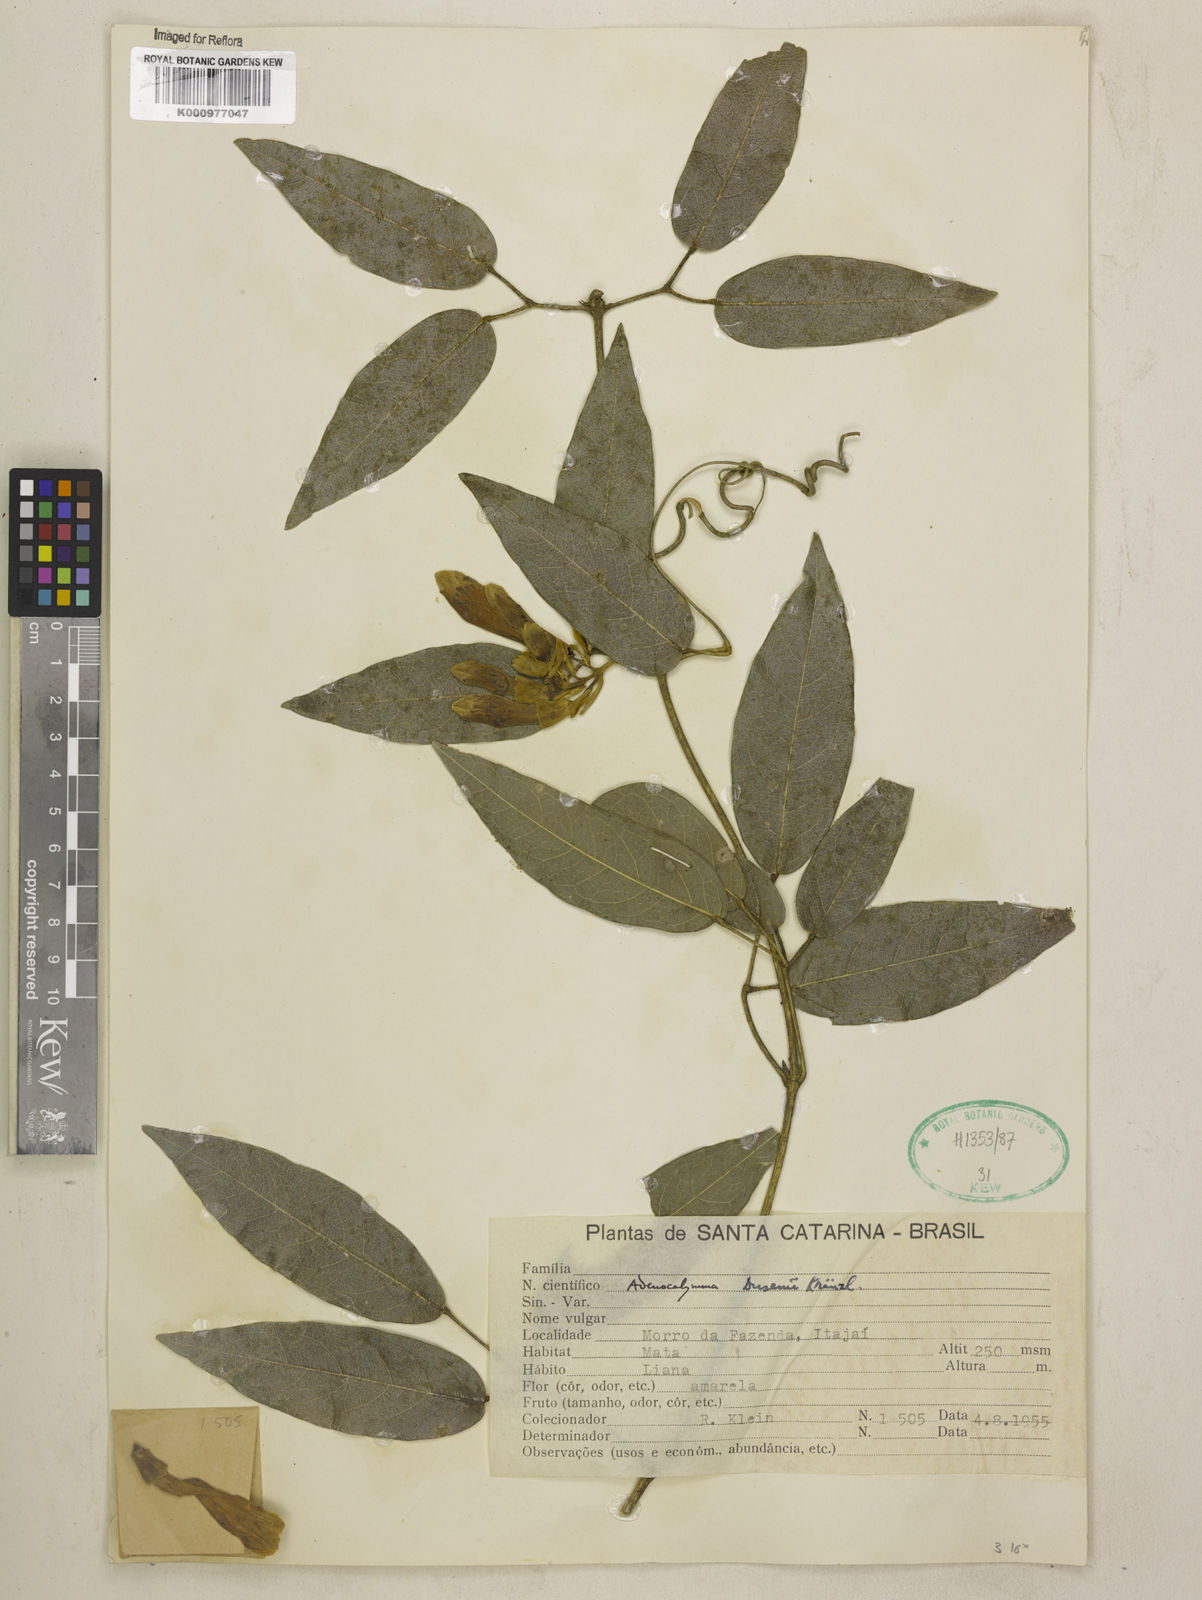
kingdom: Plantae
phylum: Tracheophyta
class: Magnoliopsida
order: Lamiales
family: Bignoniaceae
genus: Adenocalymma
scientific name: Adenocalymma dusenii
